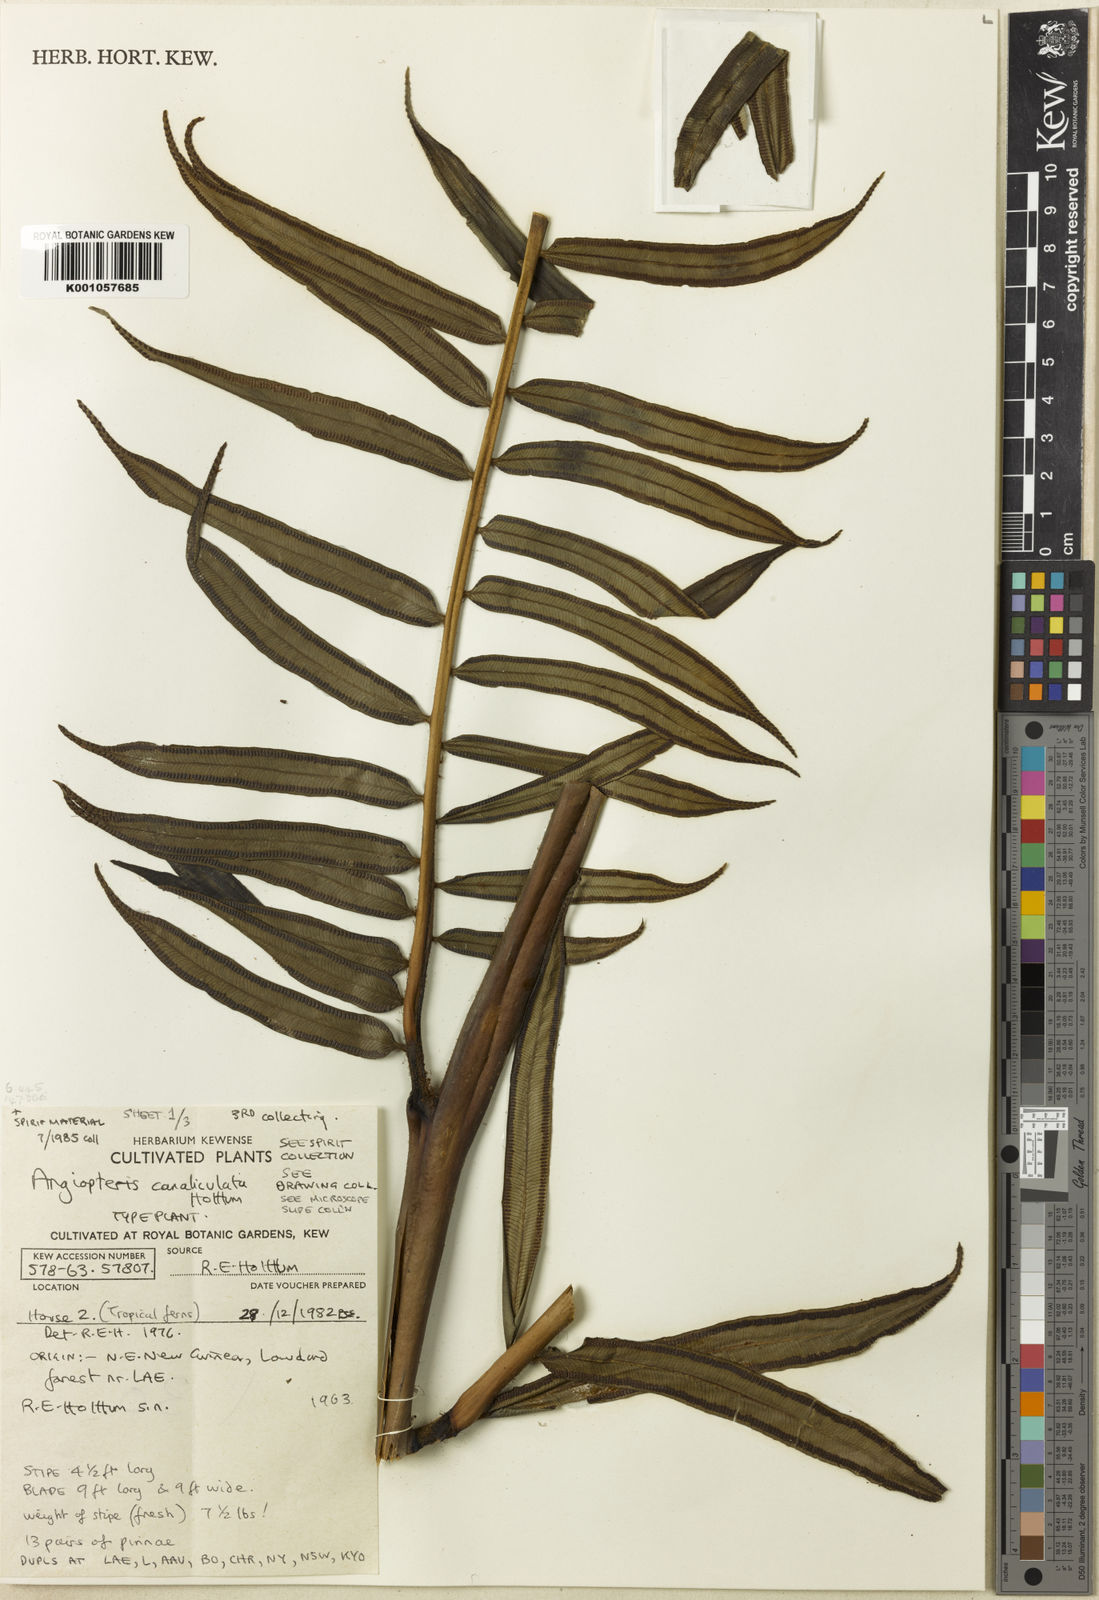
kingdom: Plantae
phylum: Tracheophyta
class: Polypodiopsida
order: Marattiales
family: Marattiaceae
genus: Angiopteris
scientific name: Angiopteris evecta
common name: Mule's-foot fern
